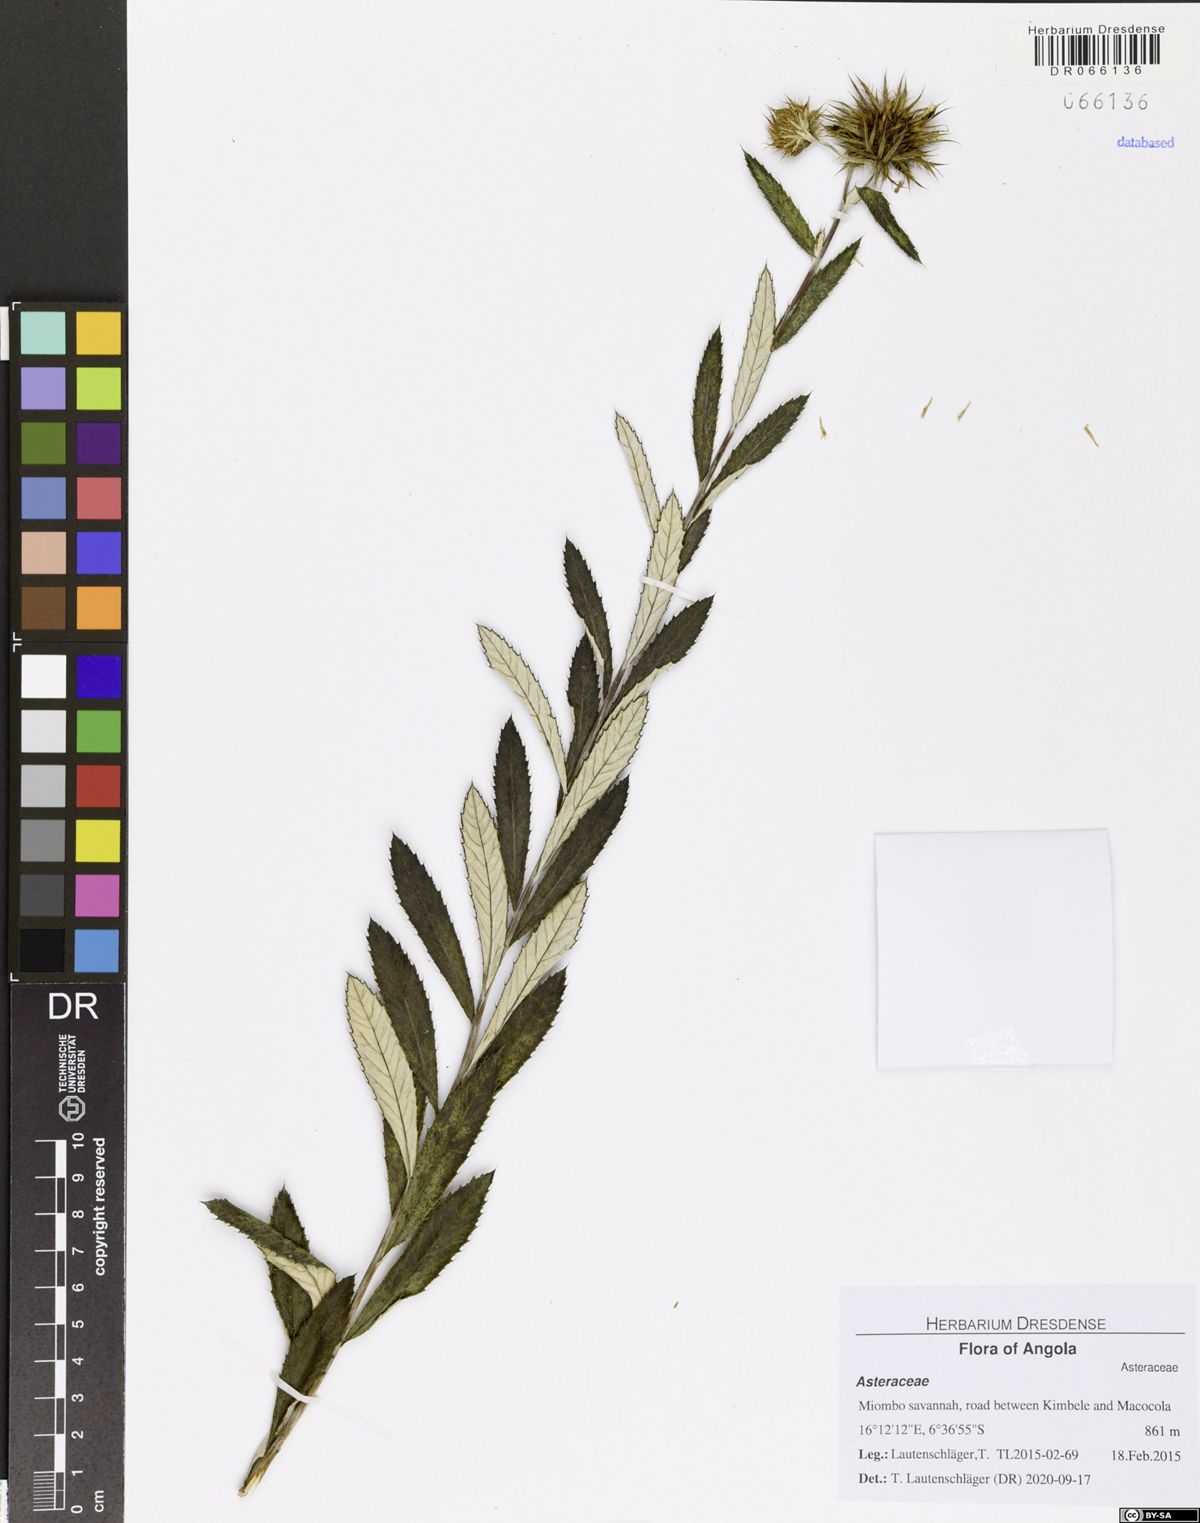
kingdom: Plantae
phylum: Tracheophyta
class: Magnoliopsida
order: Asterales
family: Asteraceae
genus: Berkheya
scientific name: Berkheya angolensis
